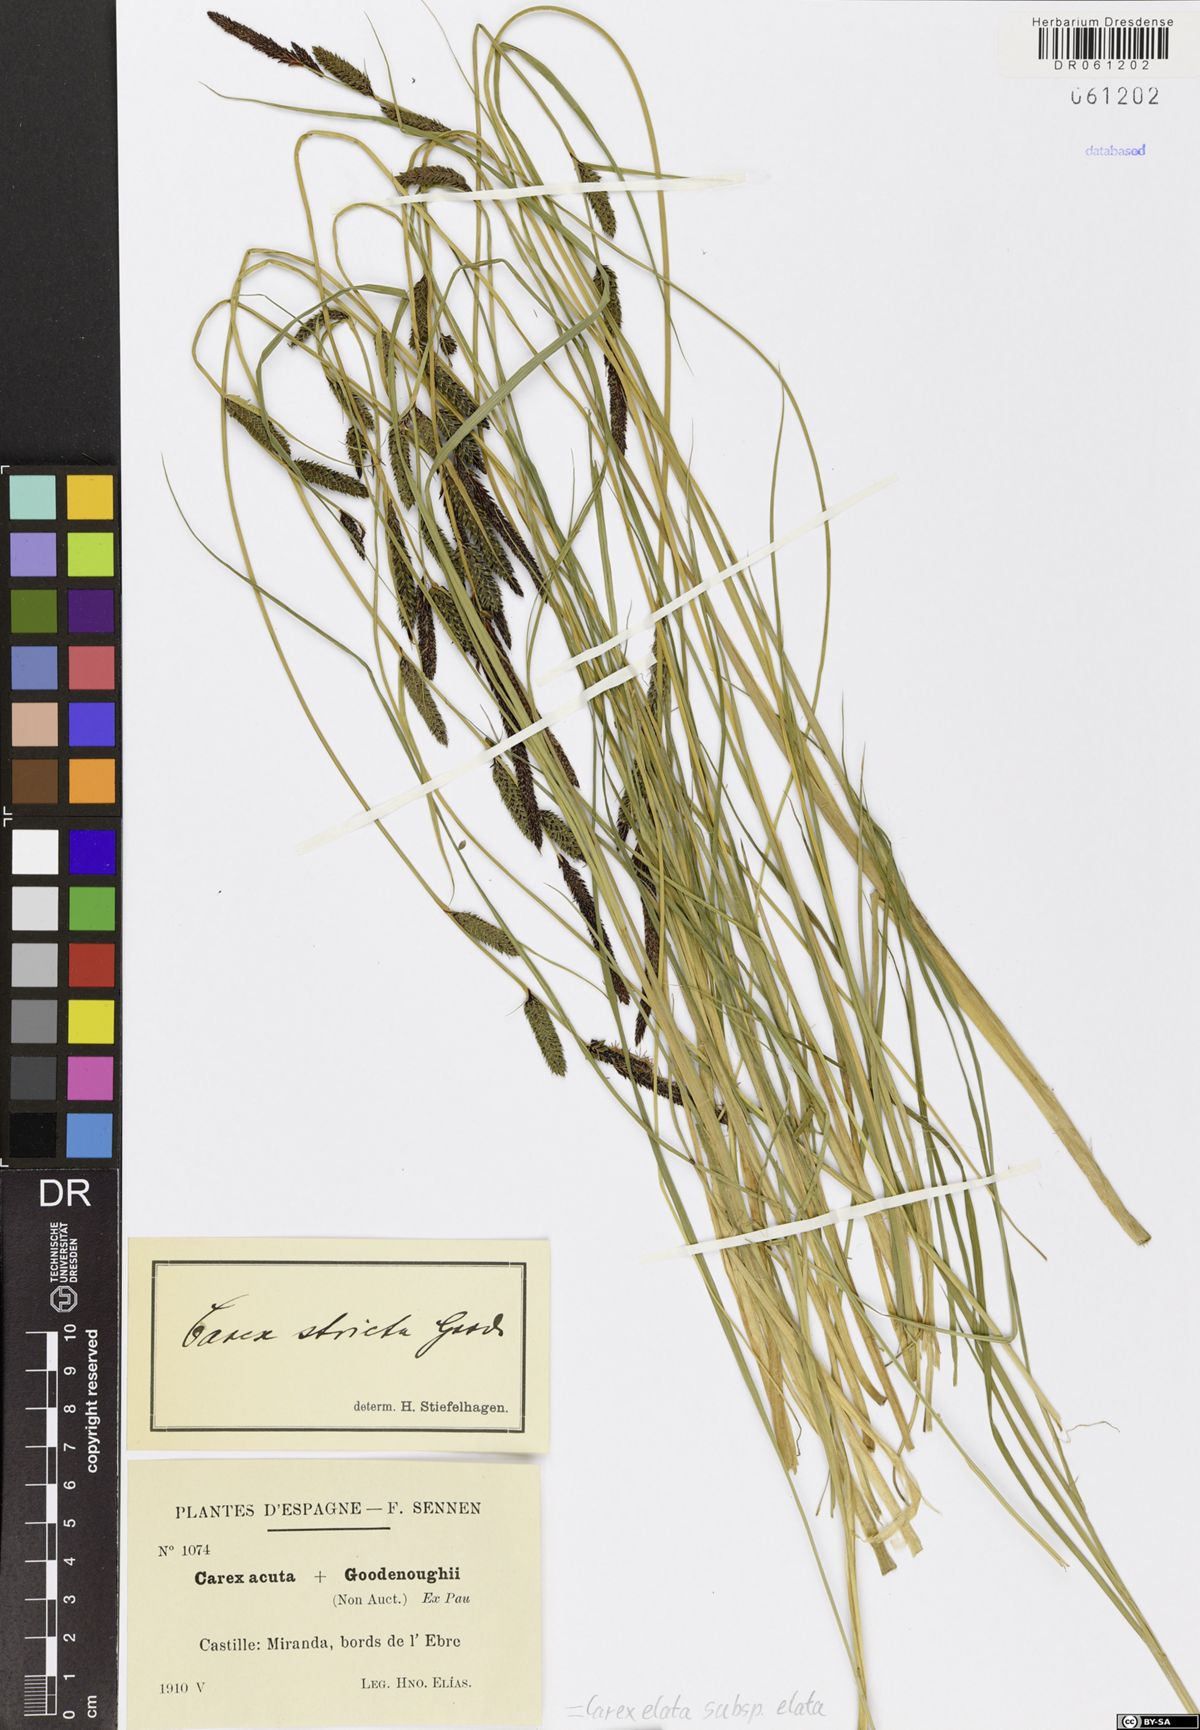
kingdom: Plantae
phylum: Tracheophyta
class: Liliopsida
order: Poales
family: Cyperaceae
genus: Carex
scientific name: Carex elata
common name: Tufted sedge
